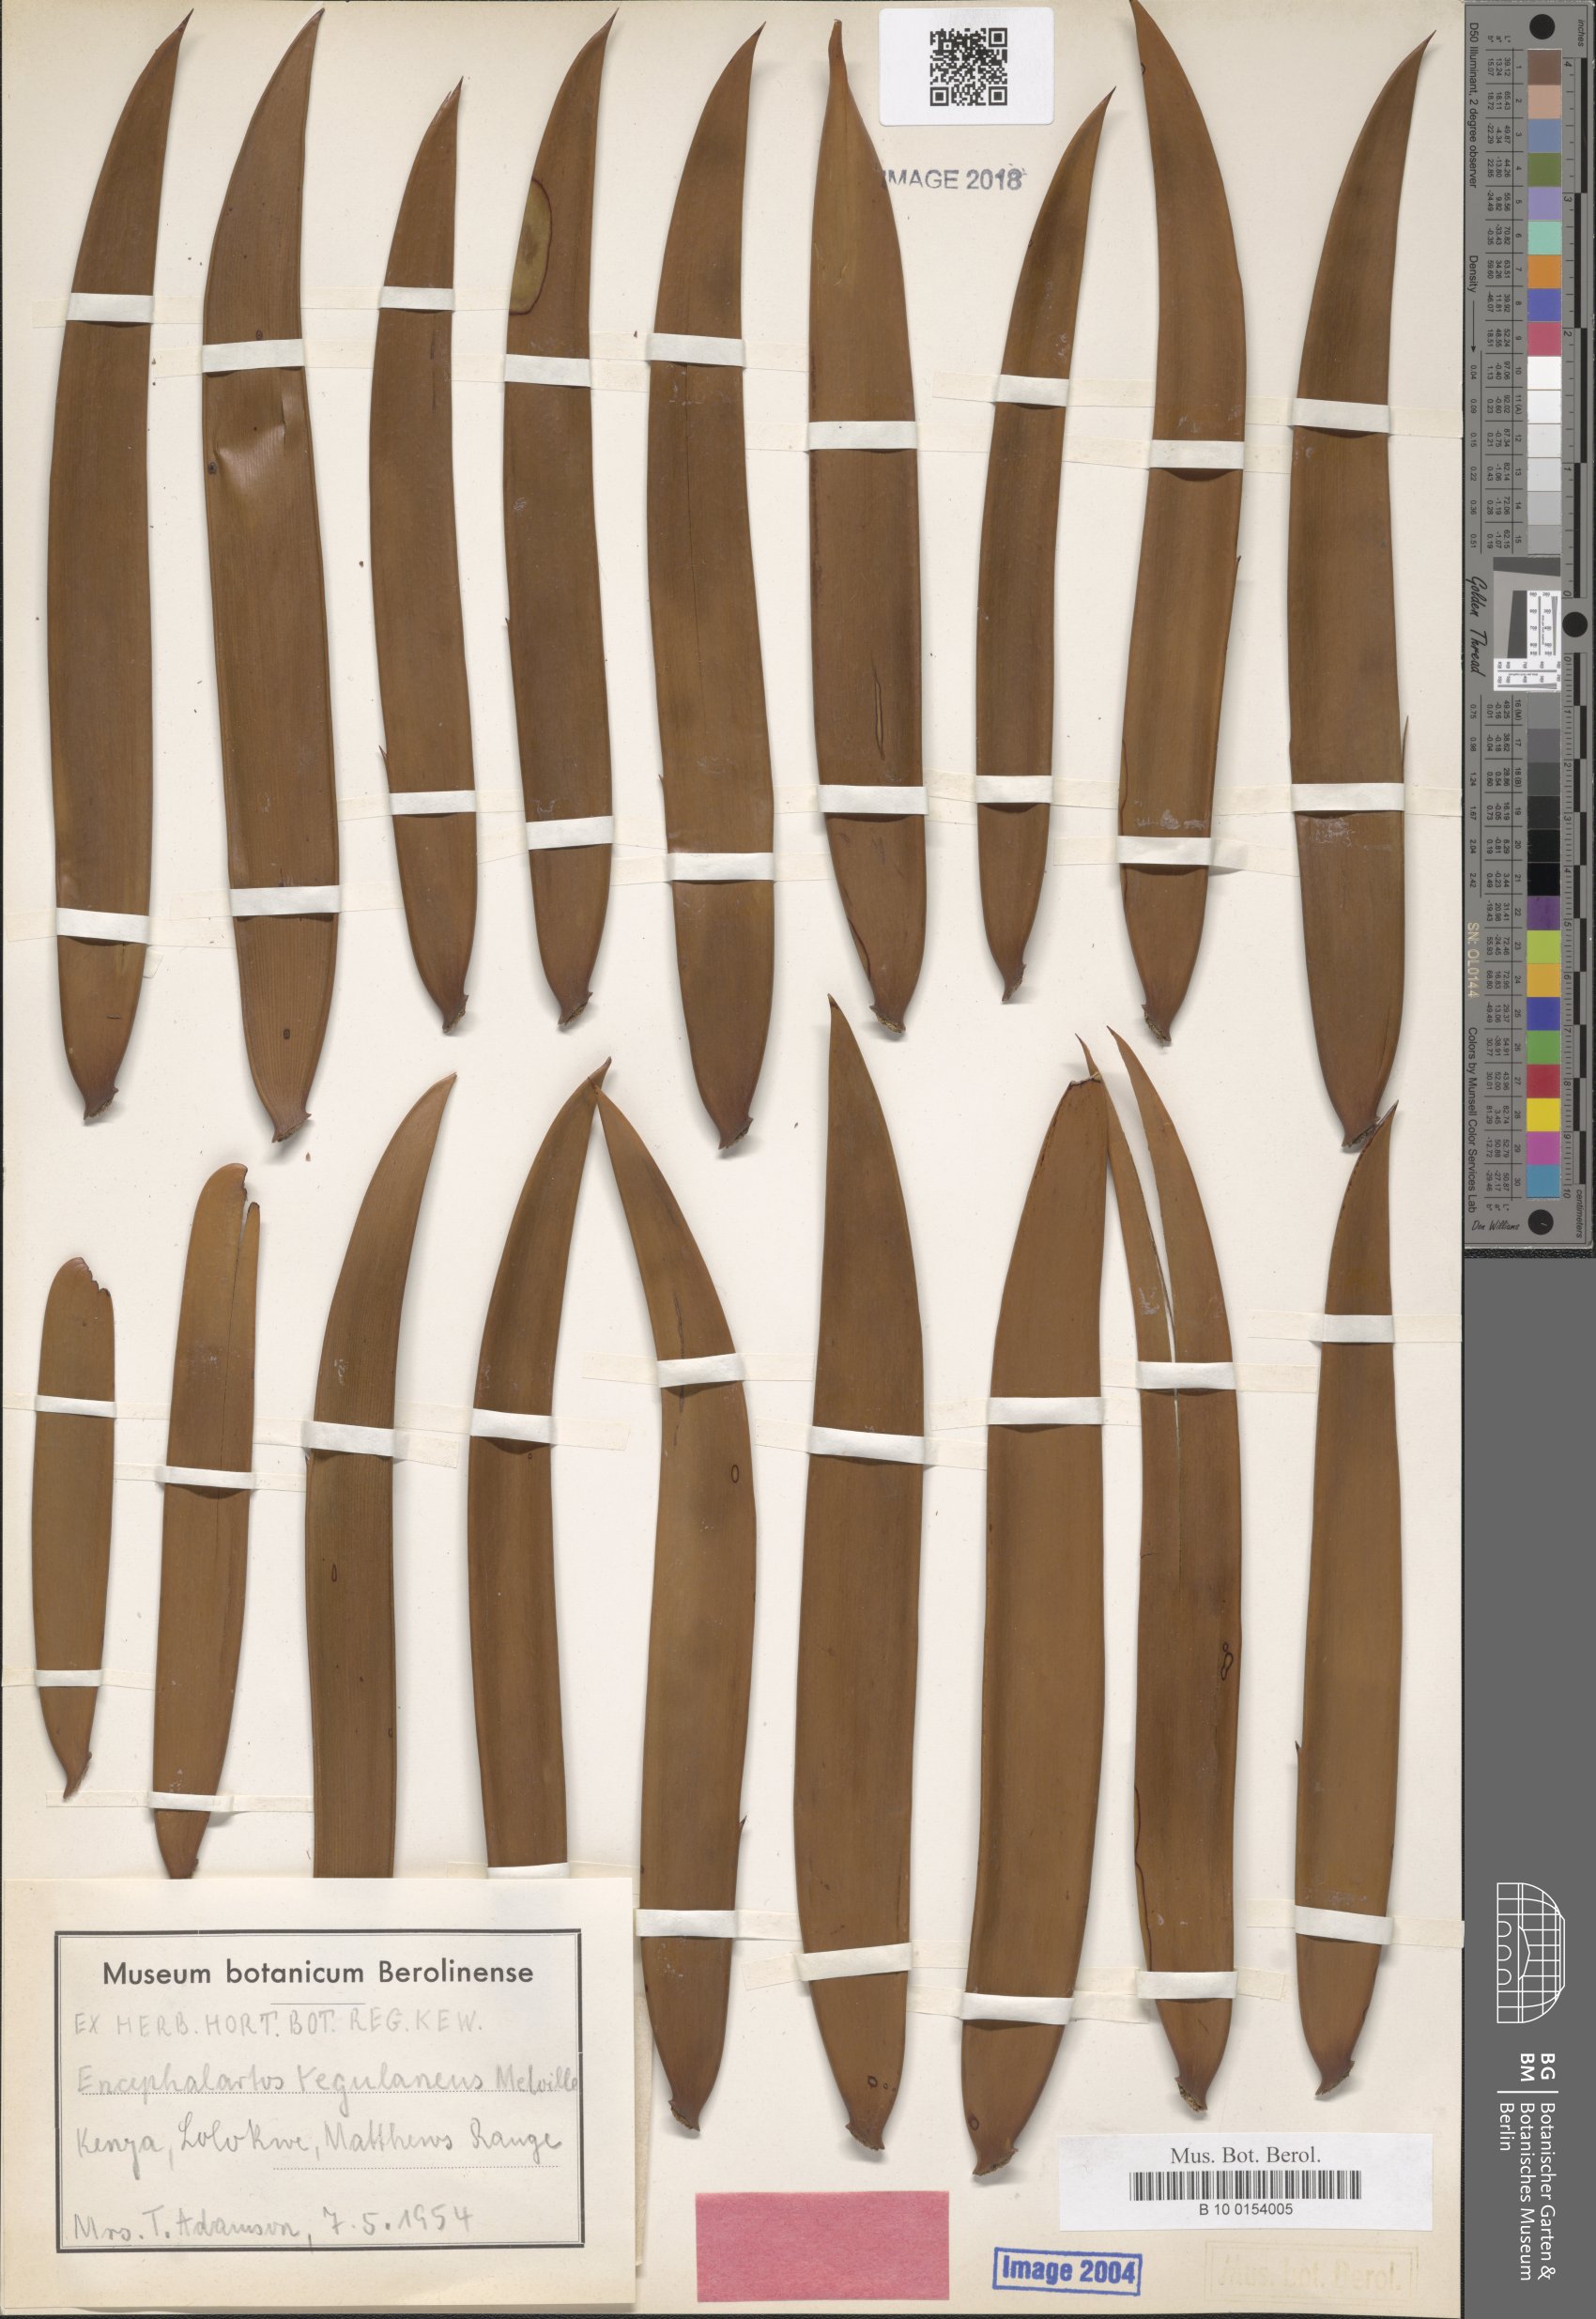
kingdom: Plantae
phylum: Tracheophyta
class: Cycadopsida
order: Cycadales
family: Zamiaceae
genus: Encephalartos
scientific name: Encephalartos tegulaneus
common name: Kenyan giant cycad
